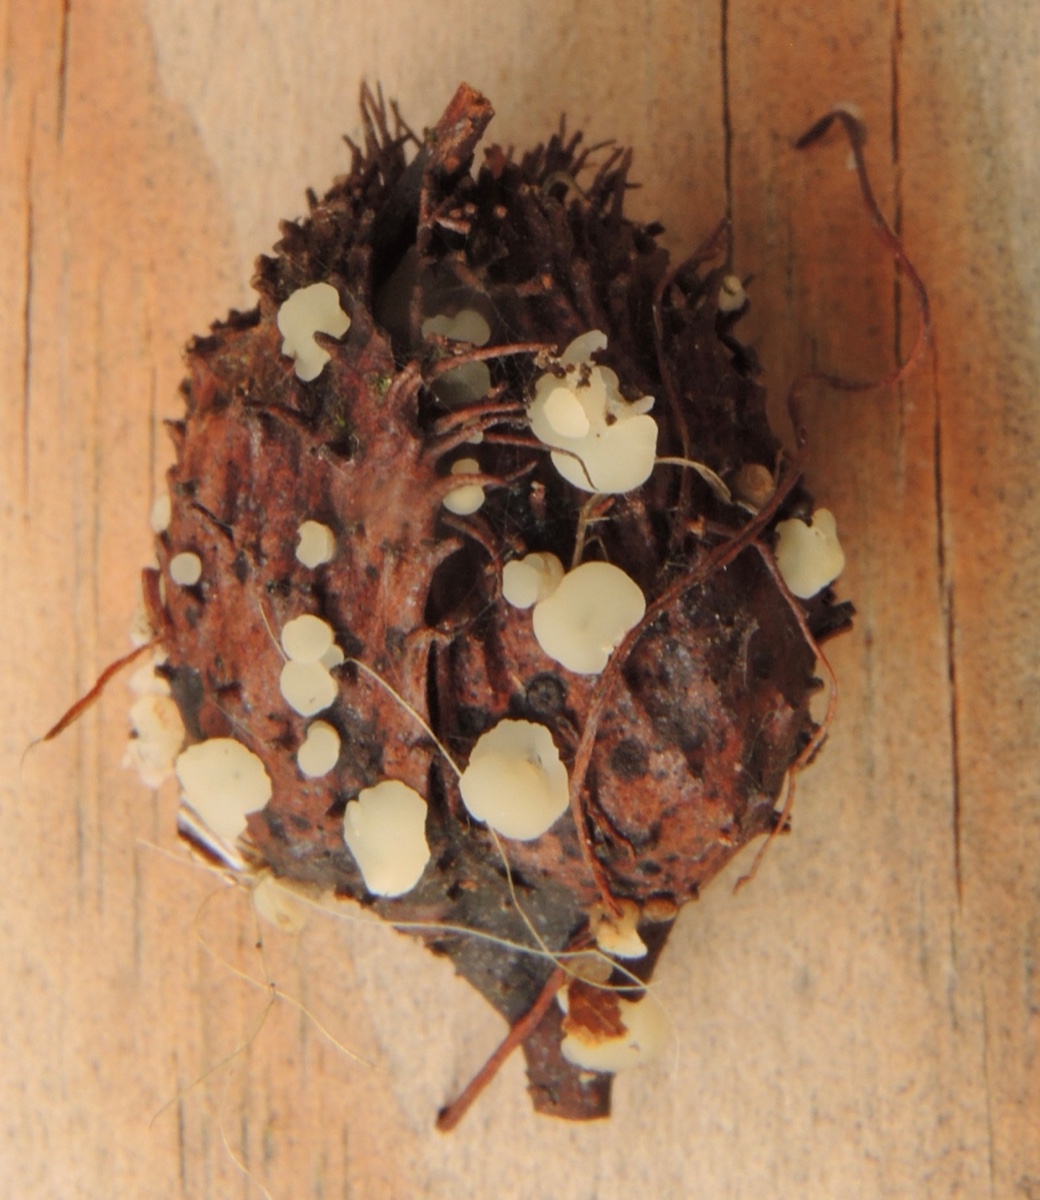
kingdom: Fungi
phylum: Ascomycota
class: Leotiomycetes
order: Helotiales
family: Helotiaceae
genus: Hymenoscyphus
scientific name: Hymenoscyphus fagineus
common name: vellugtende stilkskive
